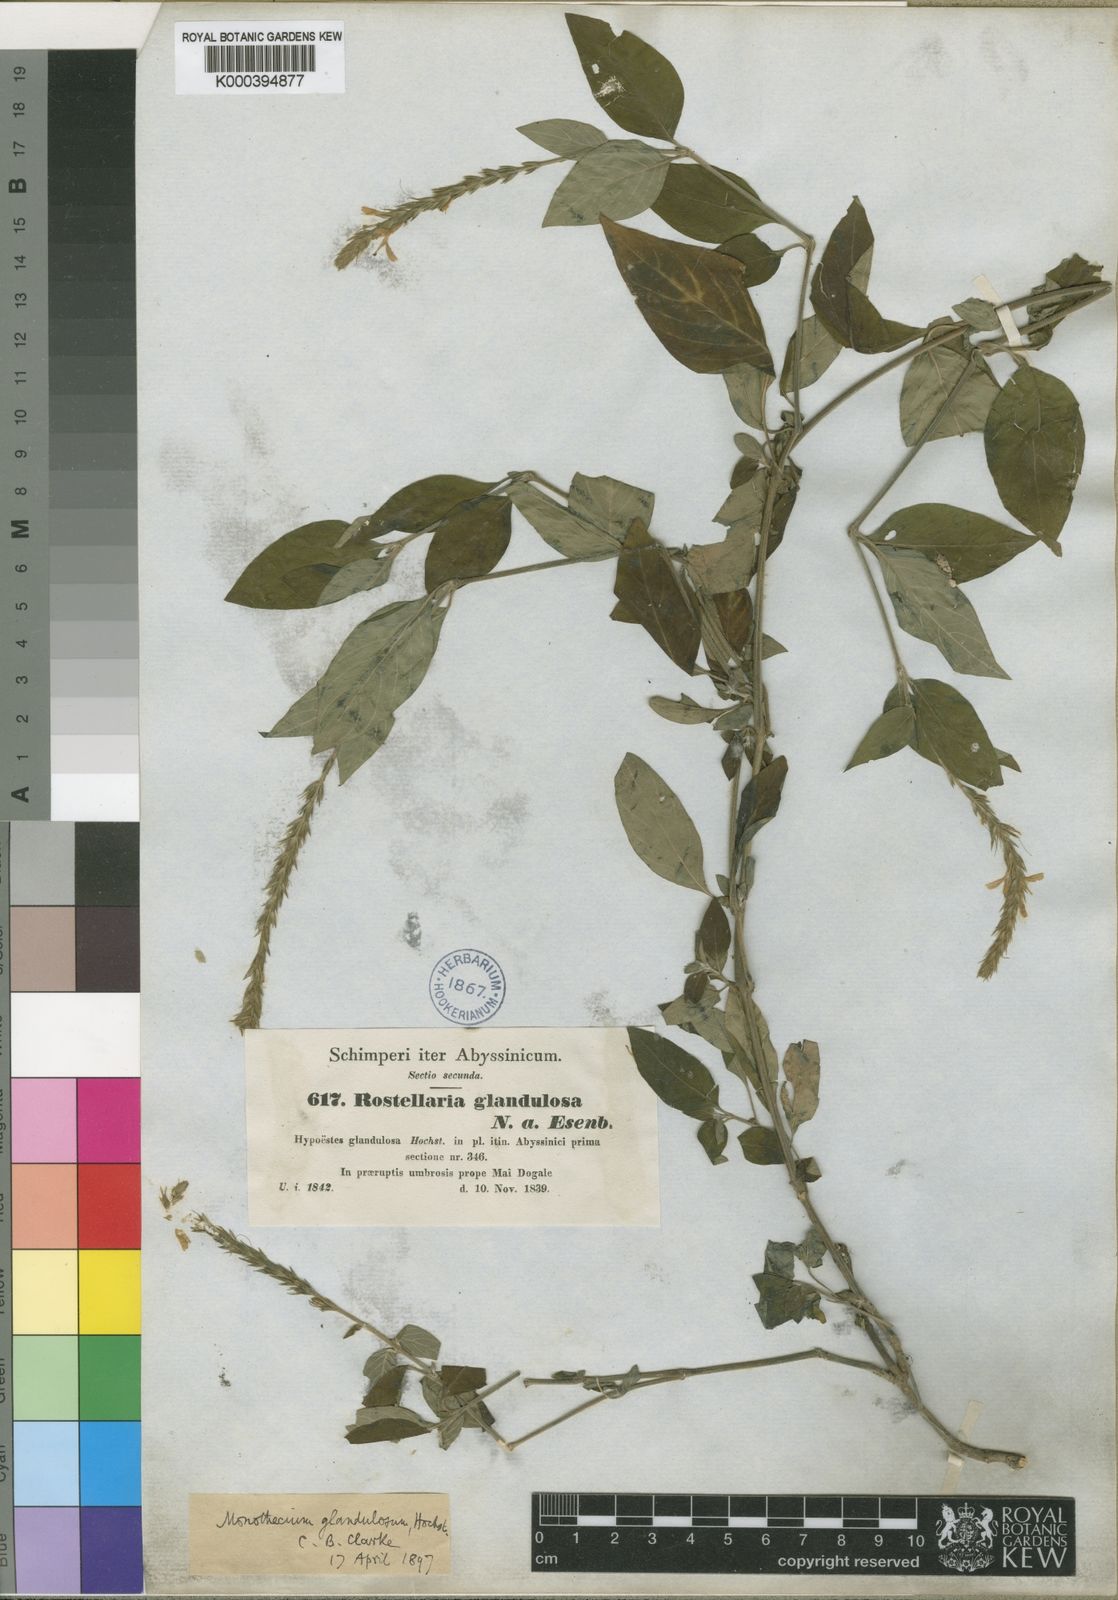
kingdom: Plantae
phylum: Tracheophyta
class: Magnoliopsida
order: Lamiales
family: Acanthaceae
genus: Monothecium
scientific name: Monothecium glandulosum
